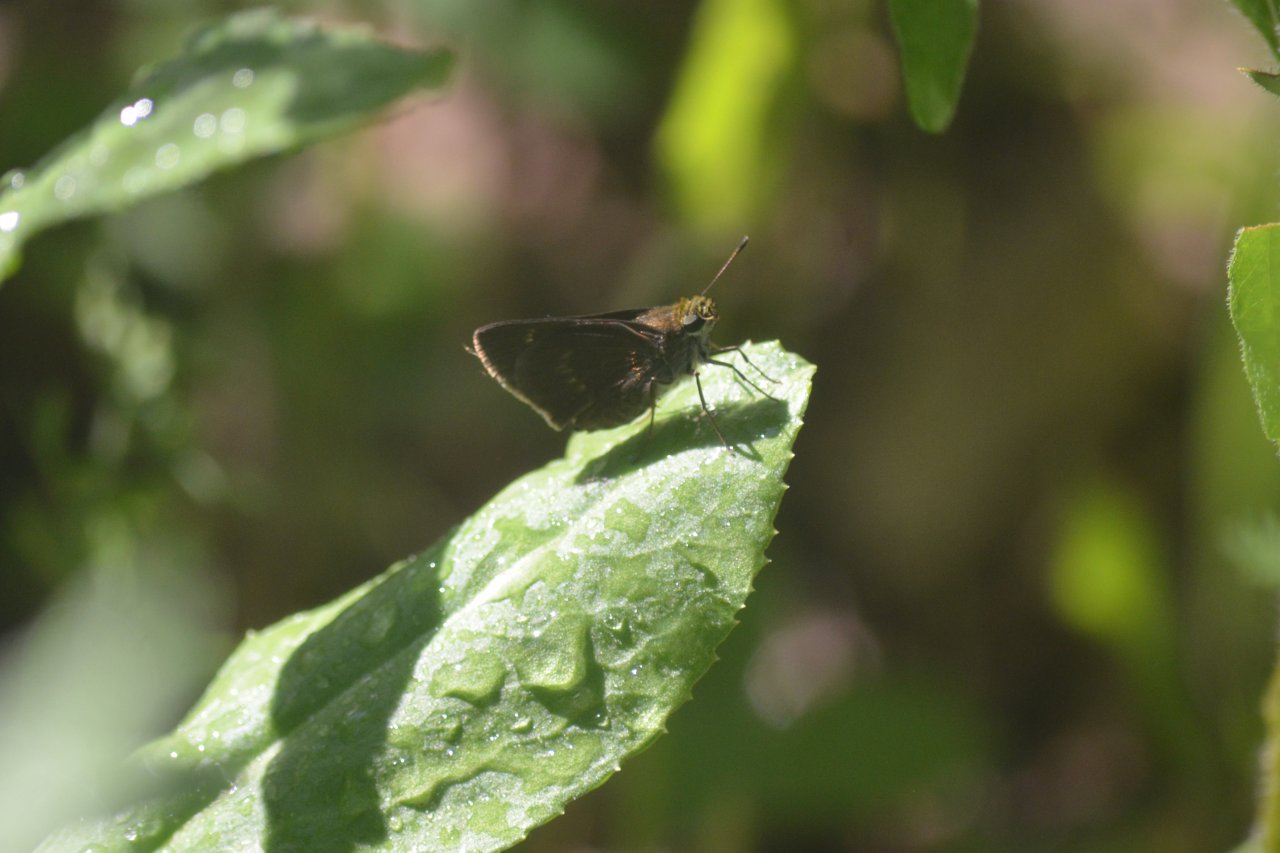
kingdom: Animalia
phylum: Arthropoda
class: Insecta
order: Lepidoptera
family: Hesperiidae
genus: Euphyes
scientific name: Euphyes vestris
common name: Dun Skipper
